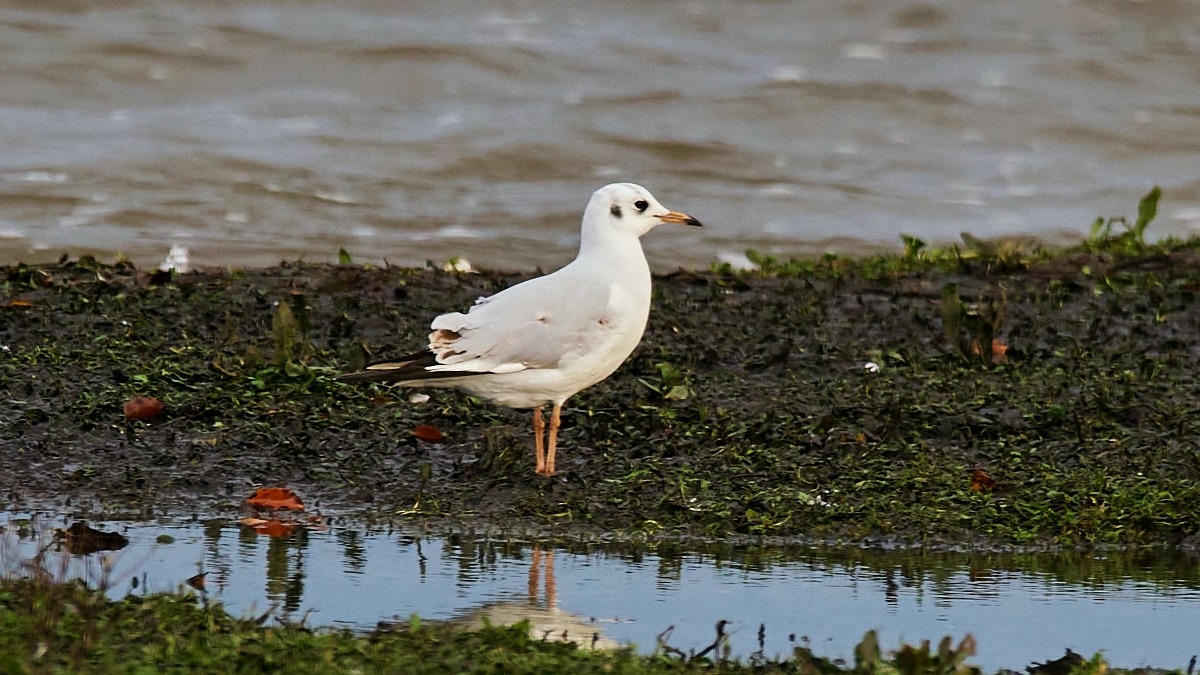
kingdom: Animalia
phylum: Chordata
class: Aves
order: Charadriiformes
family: Laridae
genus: Chroicocephalus
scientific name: Chroicocephalus ridibundus
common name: Hættemåge
